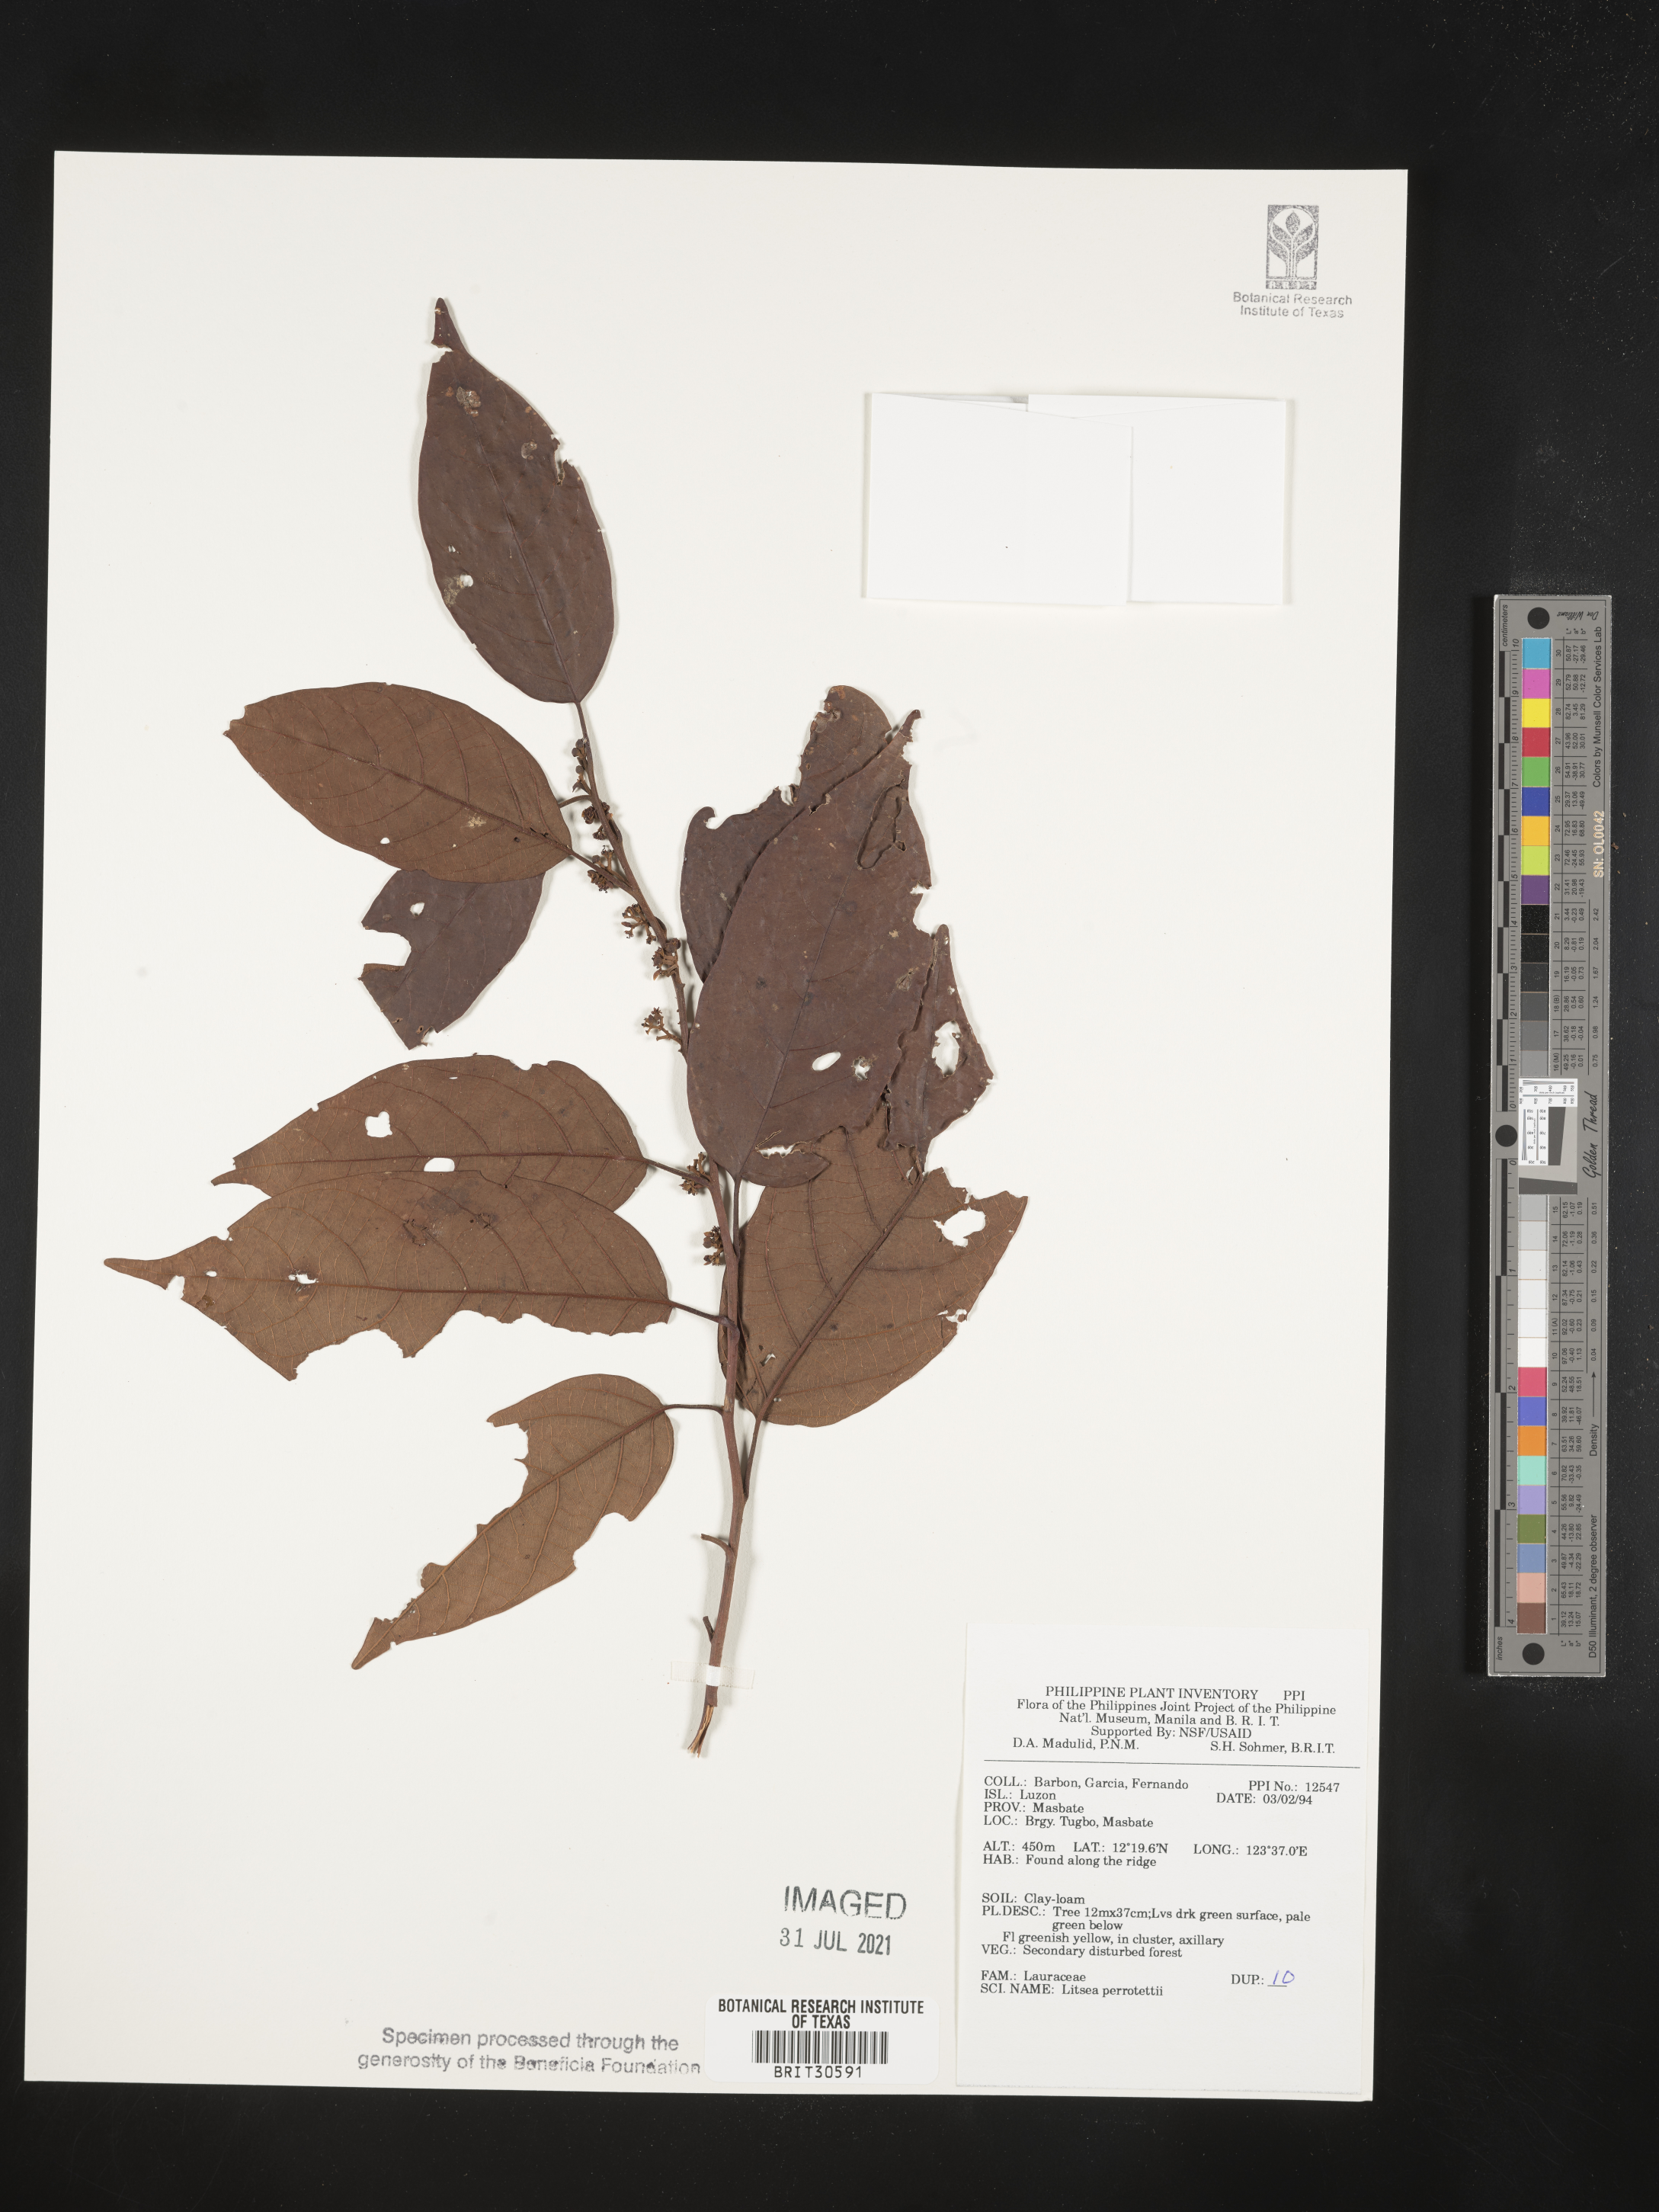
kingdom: Plantae
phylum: Tracheophyta
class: Magnoliopsida
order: Laurales
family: Lauraceae
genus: Litsea
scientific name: Litsea cordata
